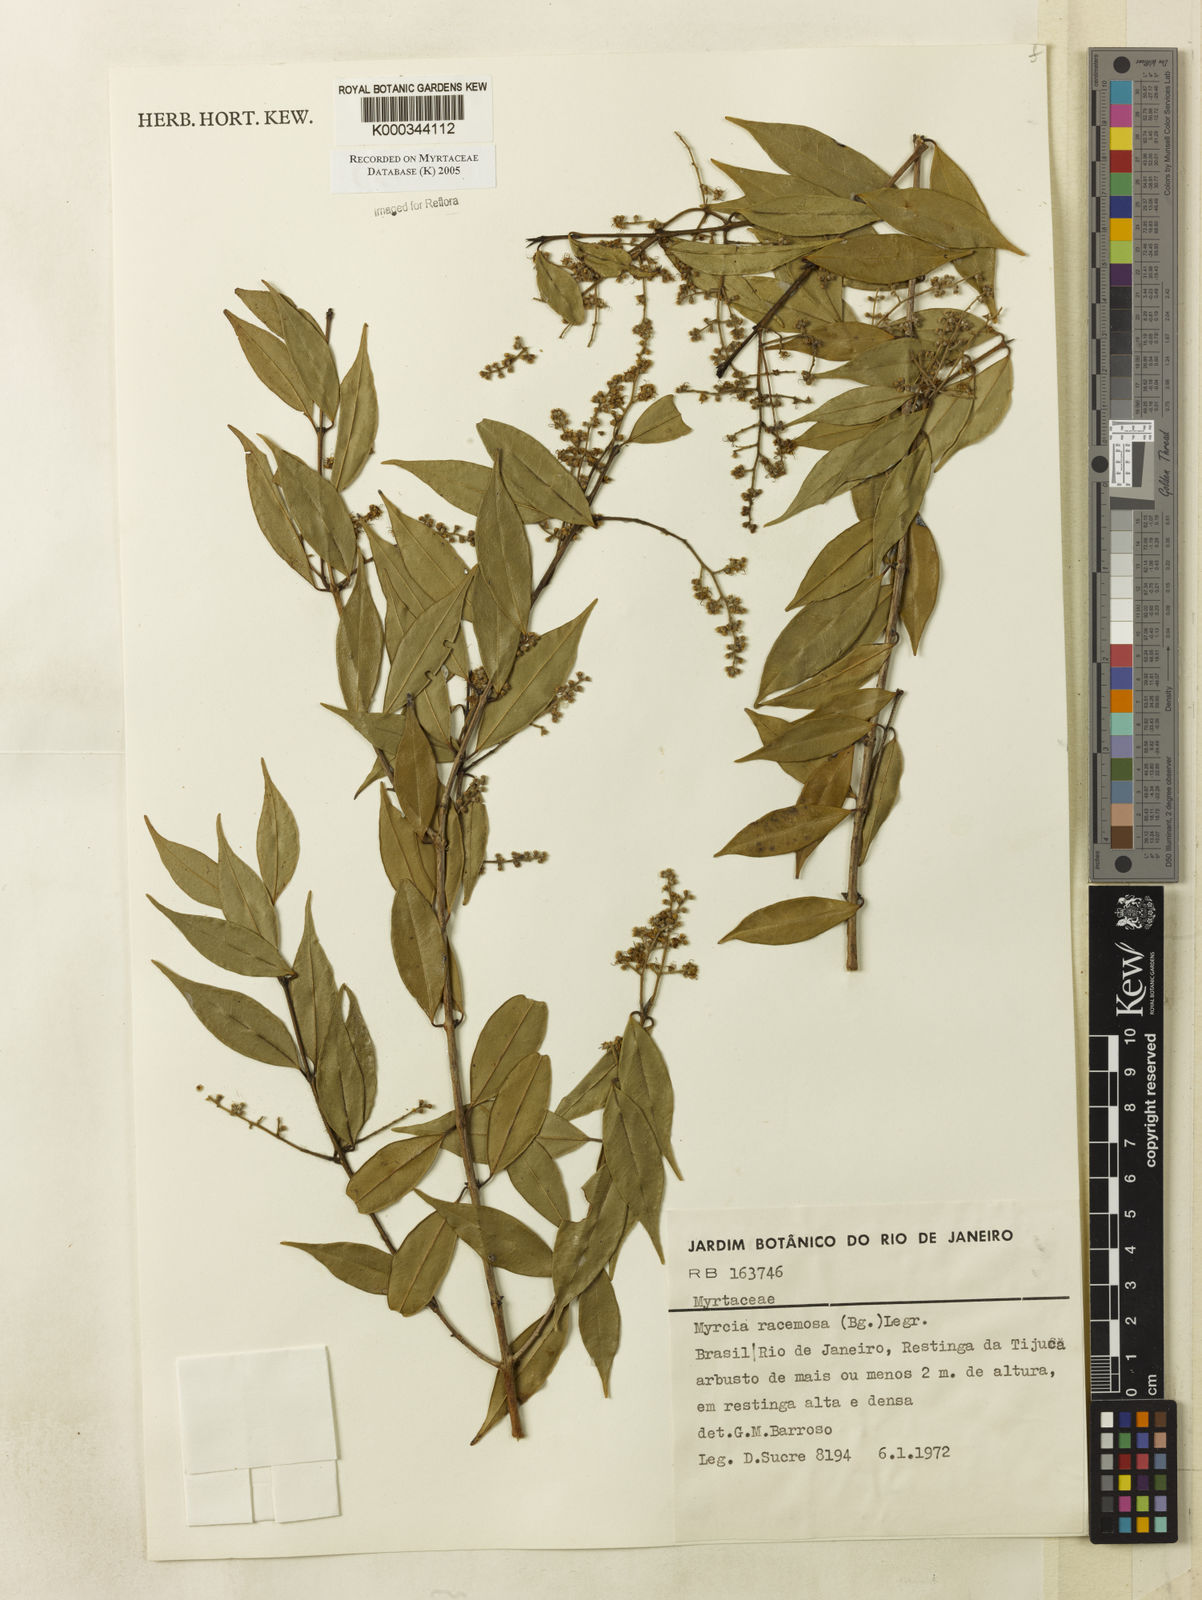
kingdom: Plantae
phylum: Tracheophyta
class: Magnoliopsida
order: Myrtales
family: Myrtaceae
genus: Myrcia
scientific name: Myrcia racemosa
